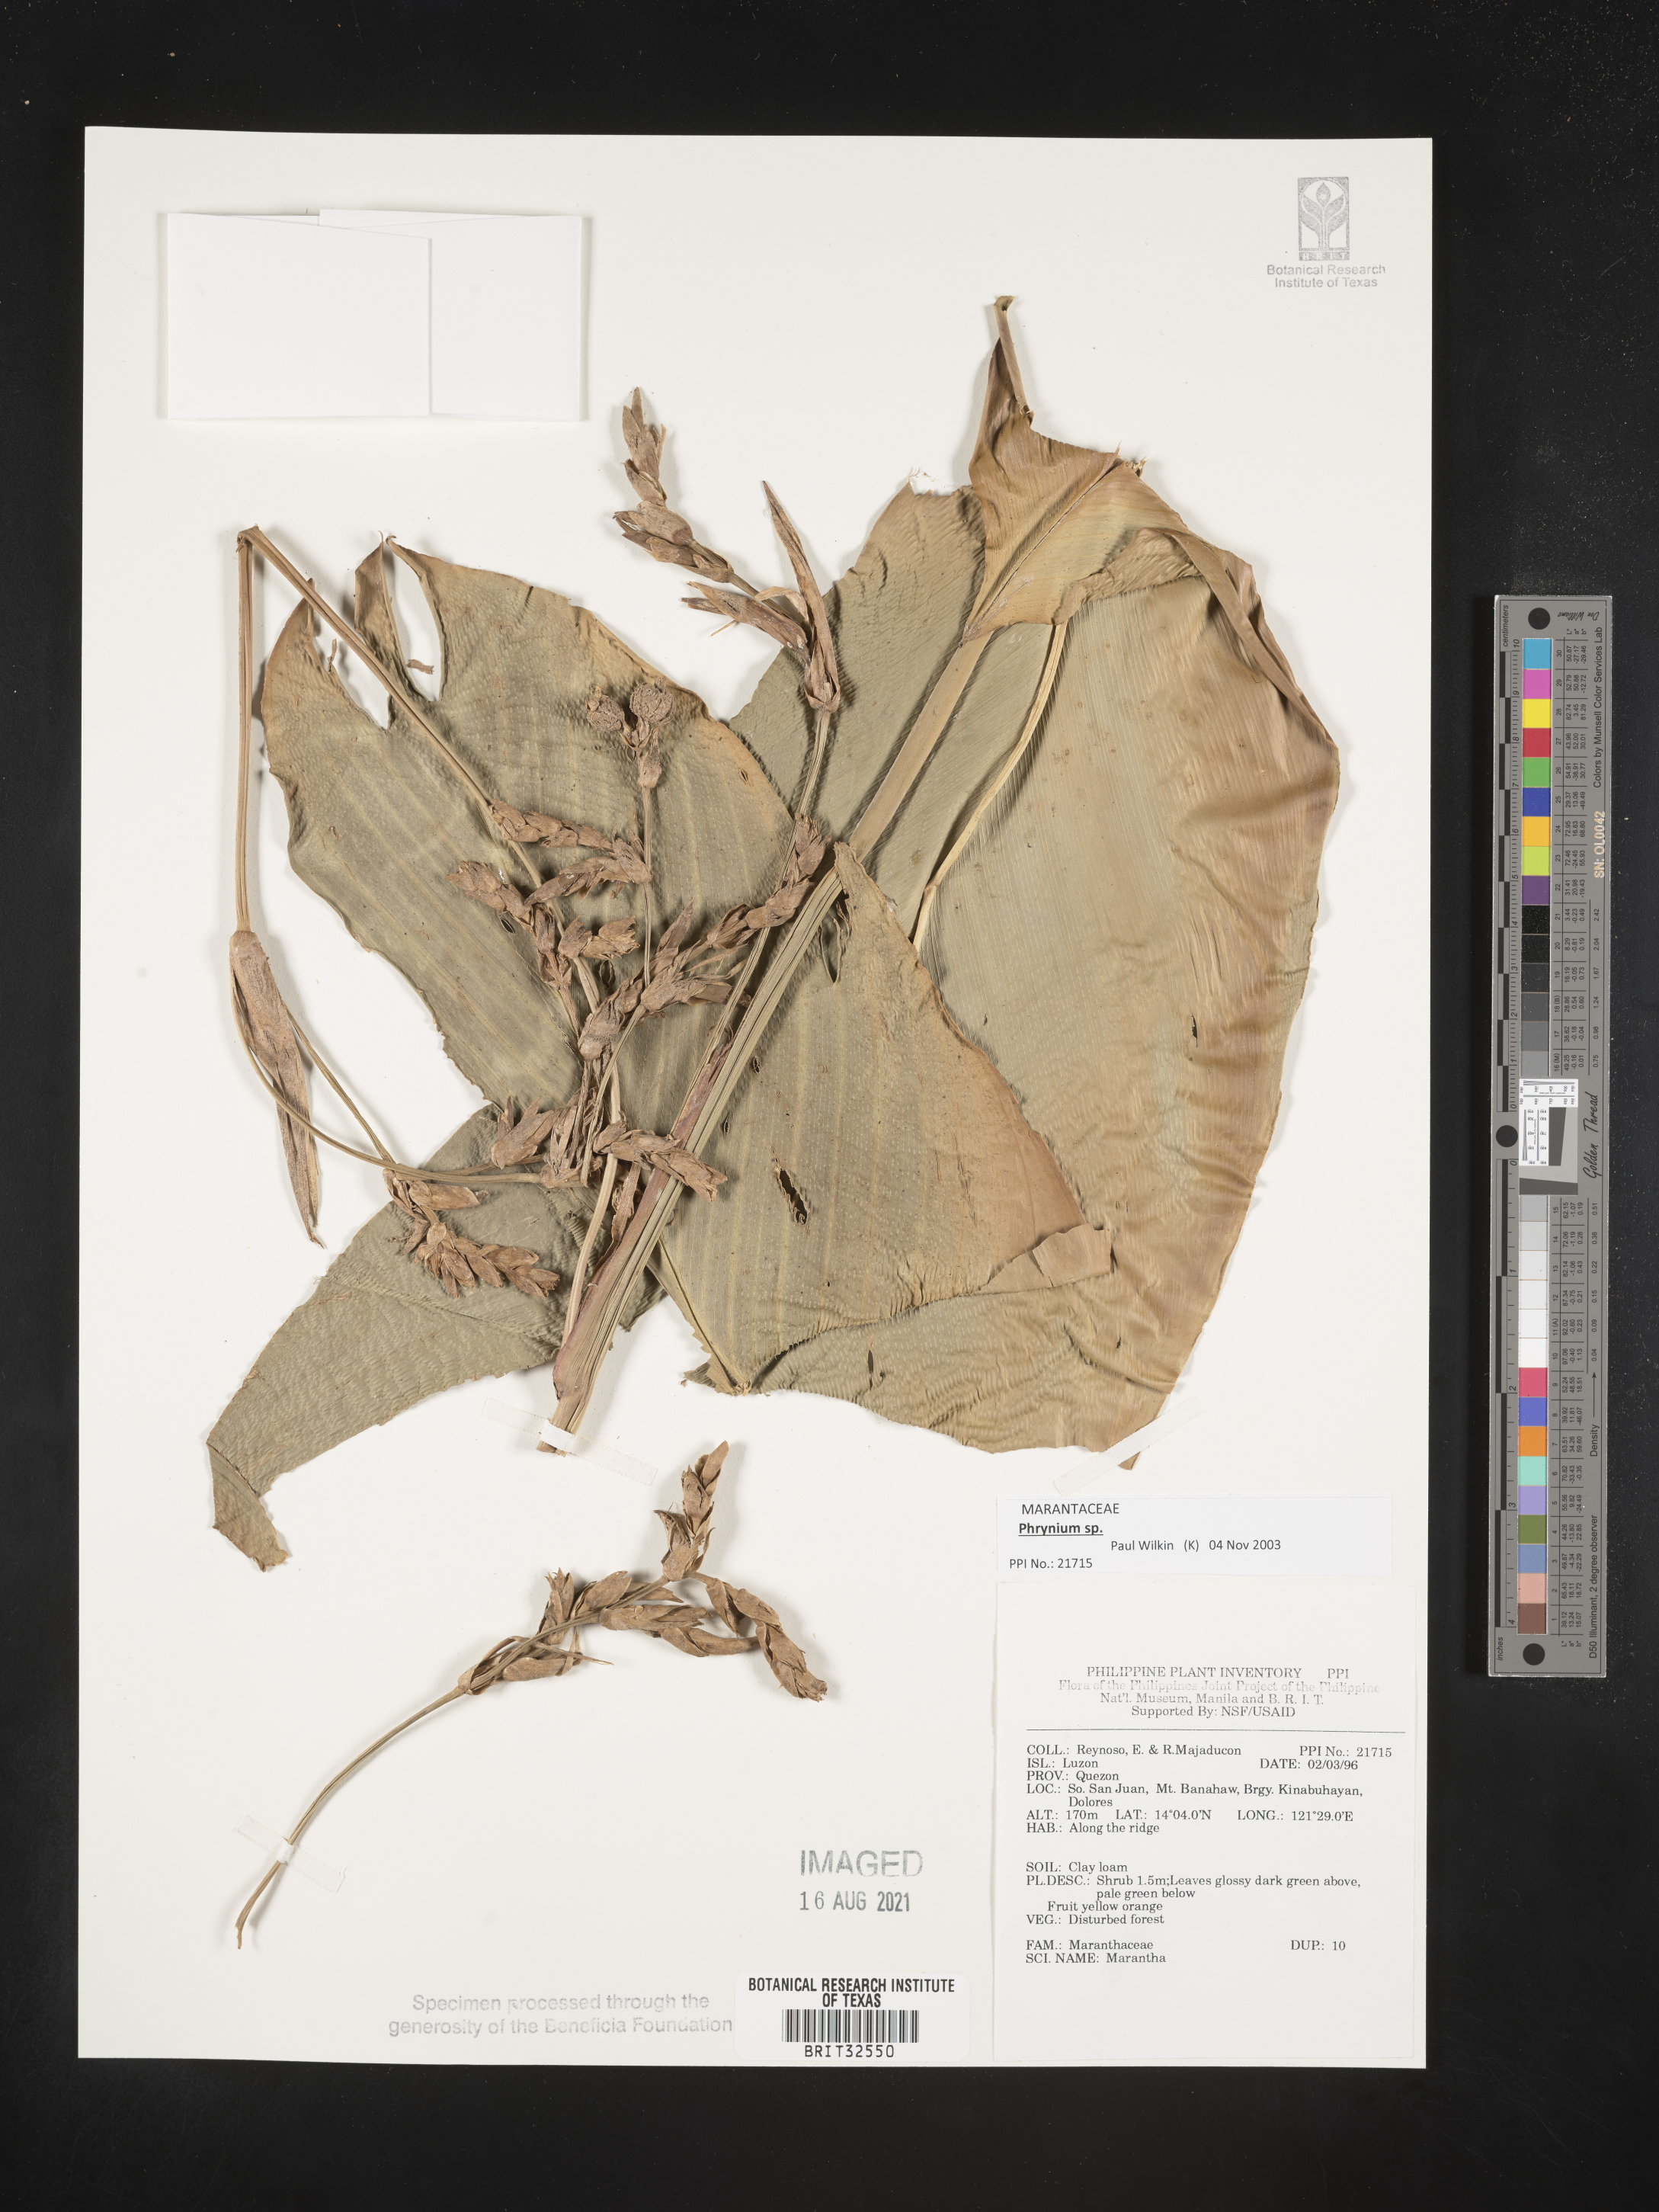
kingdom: Plantae
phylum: Tracheophyta
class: Liliopsida
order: Zingiberales
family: Marantaceae
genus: Maranta
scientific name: Maranta
